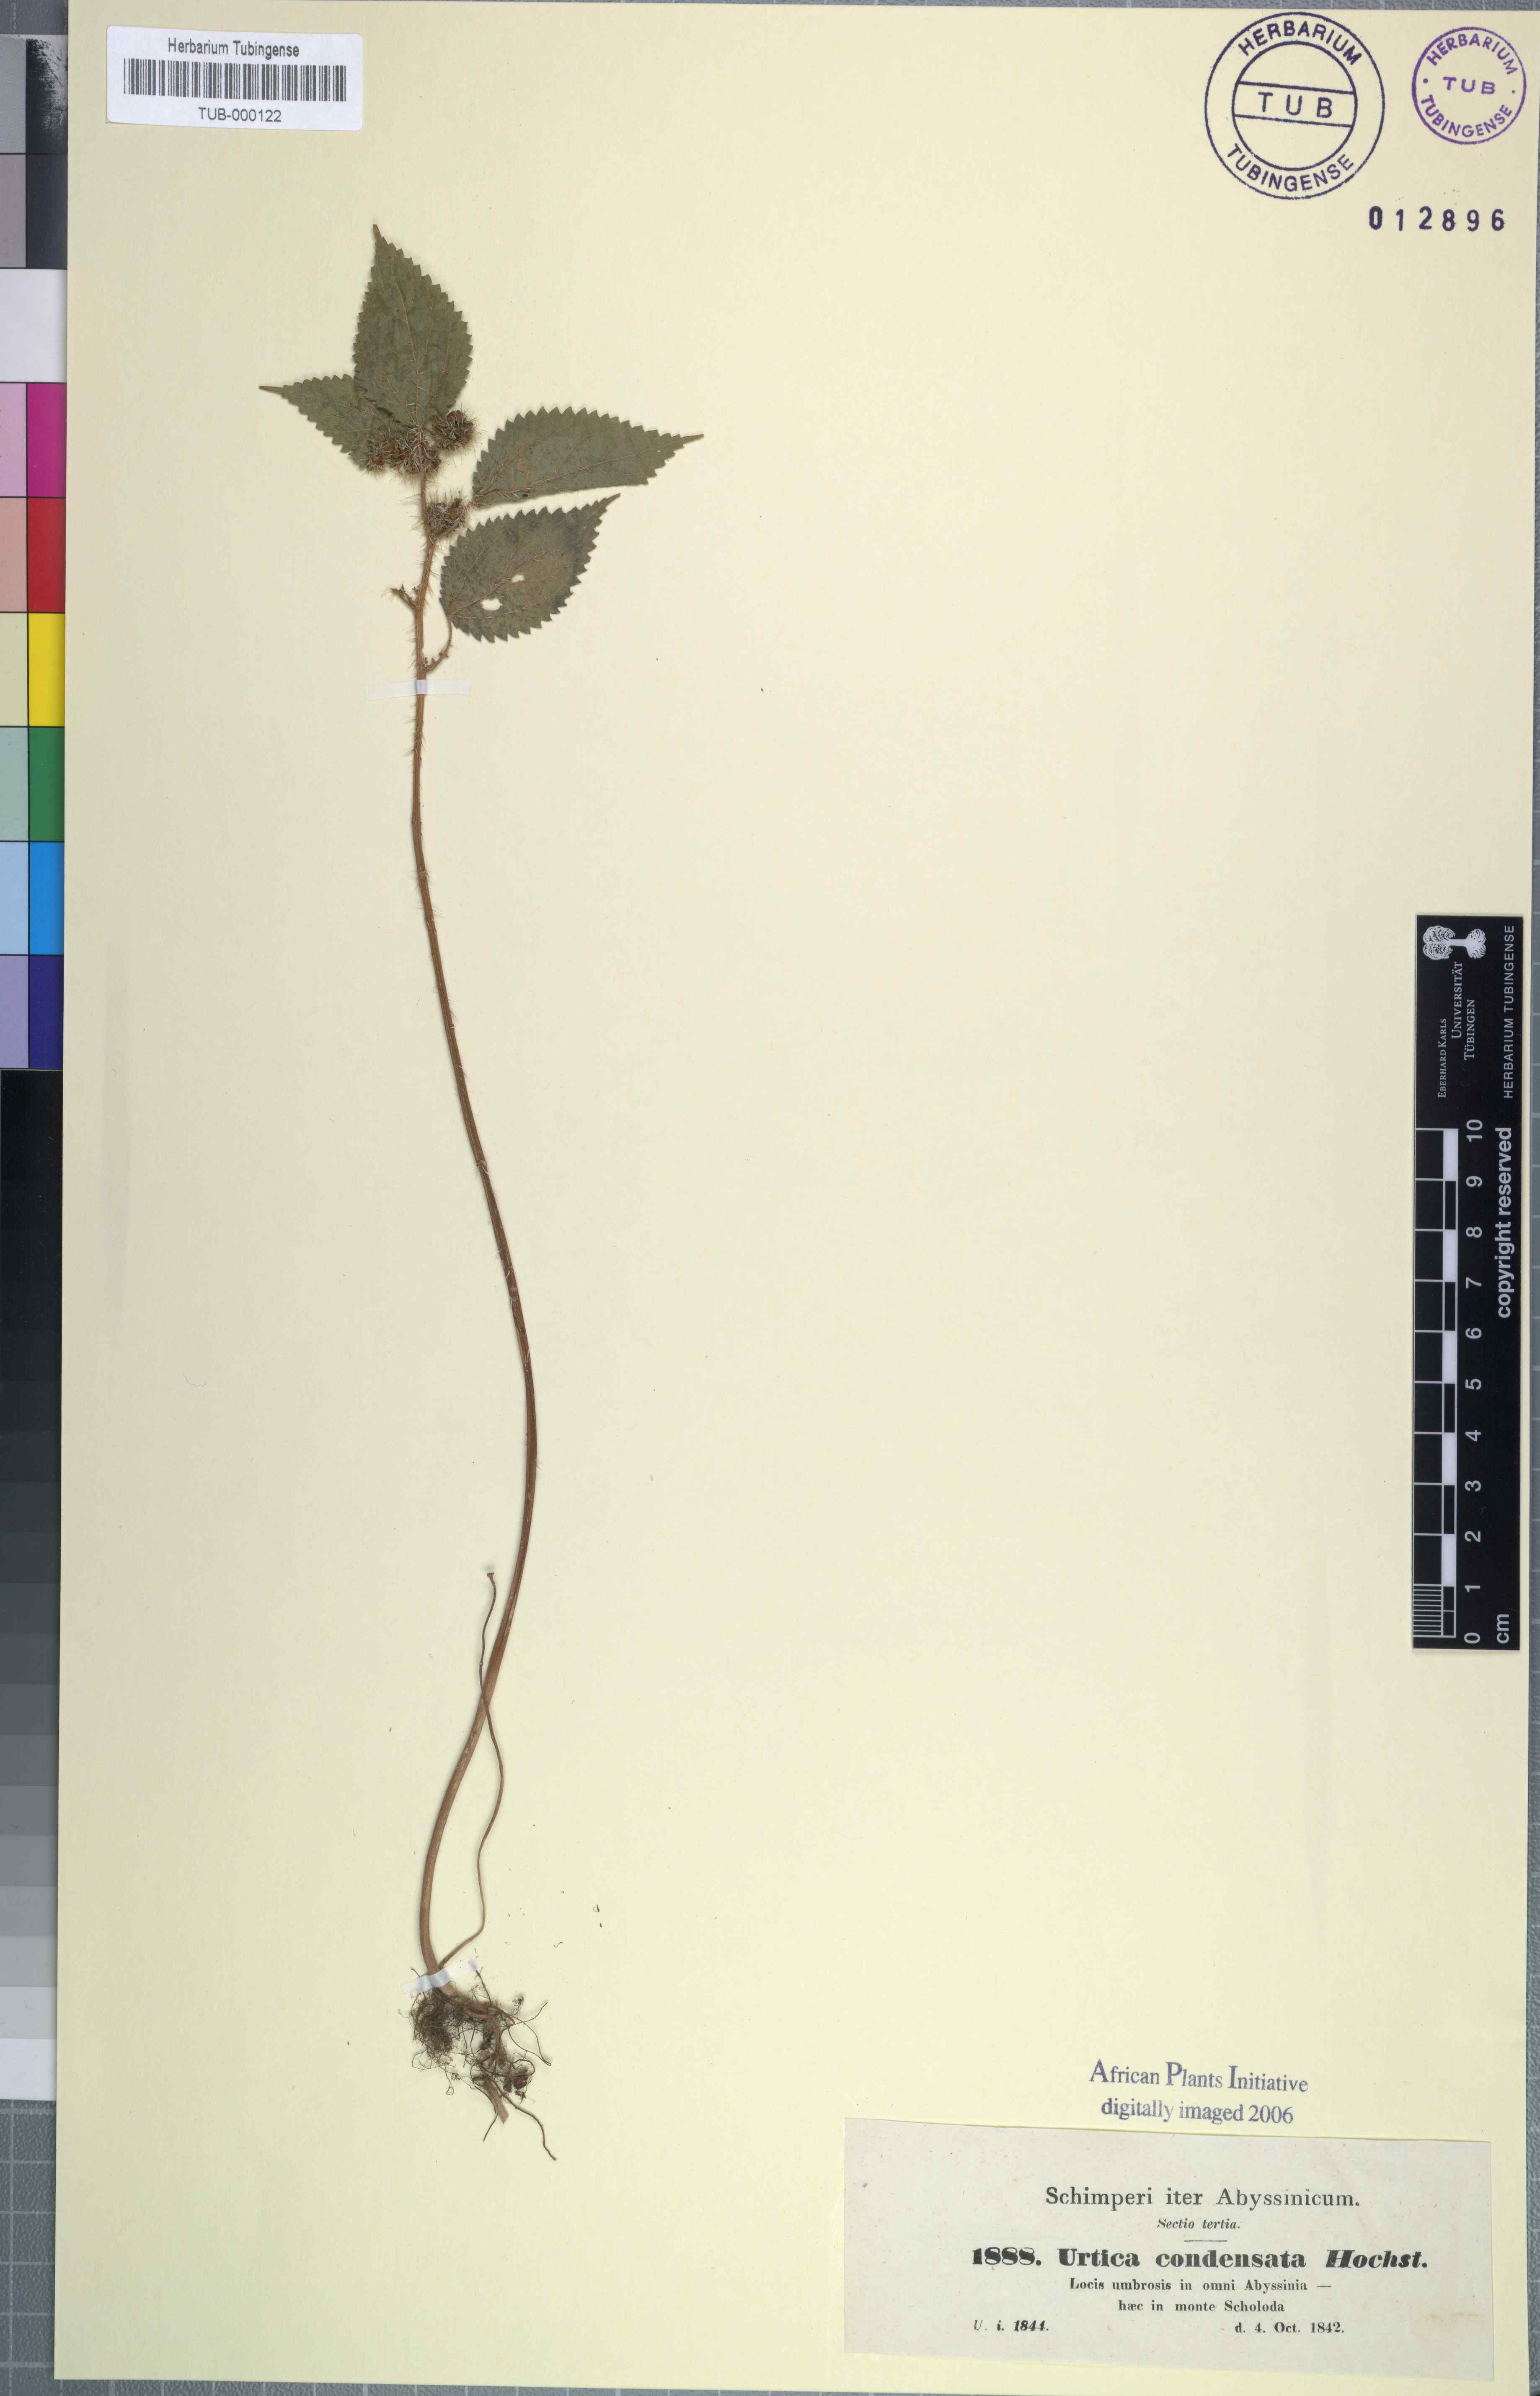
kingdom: Plantae
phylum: Tracheophyta
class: Magnoliopsida
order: Rosales
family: Urticaceae
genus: Girardinia
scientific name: Girardinia diversifolia
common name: Himalayan-nettle
